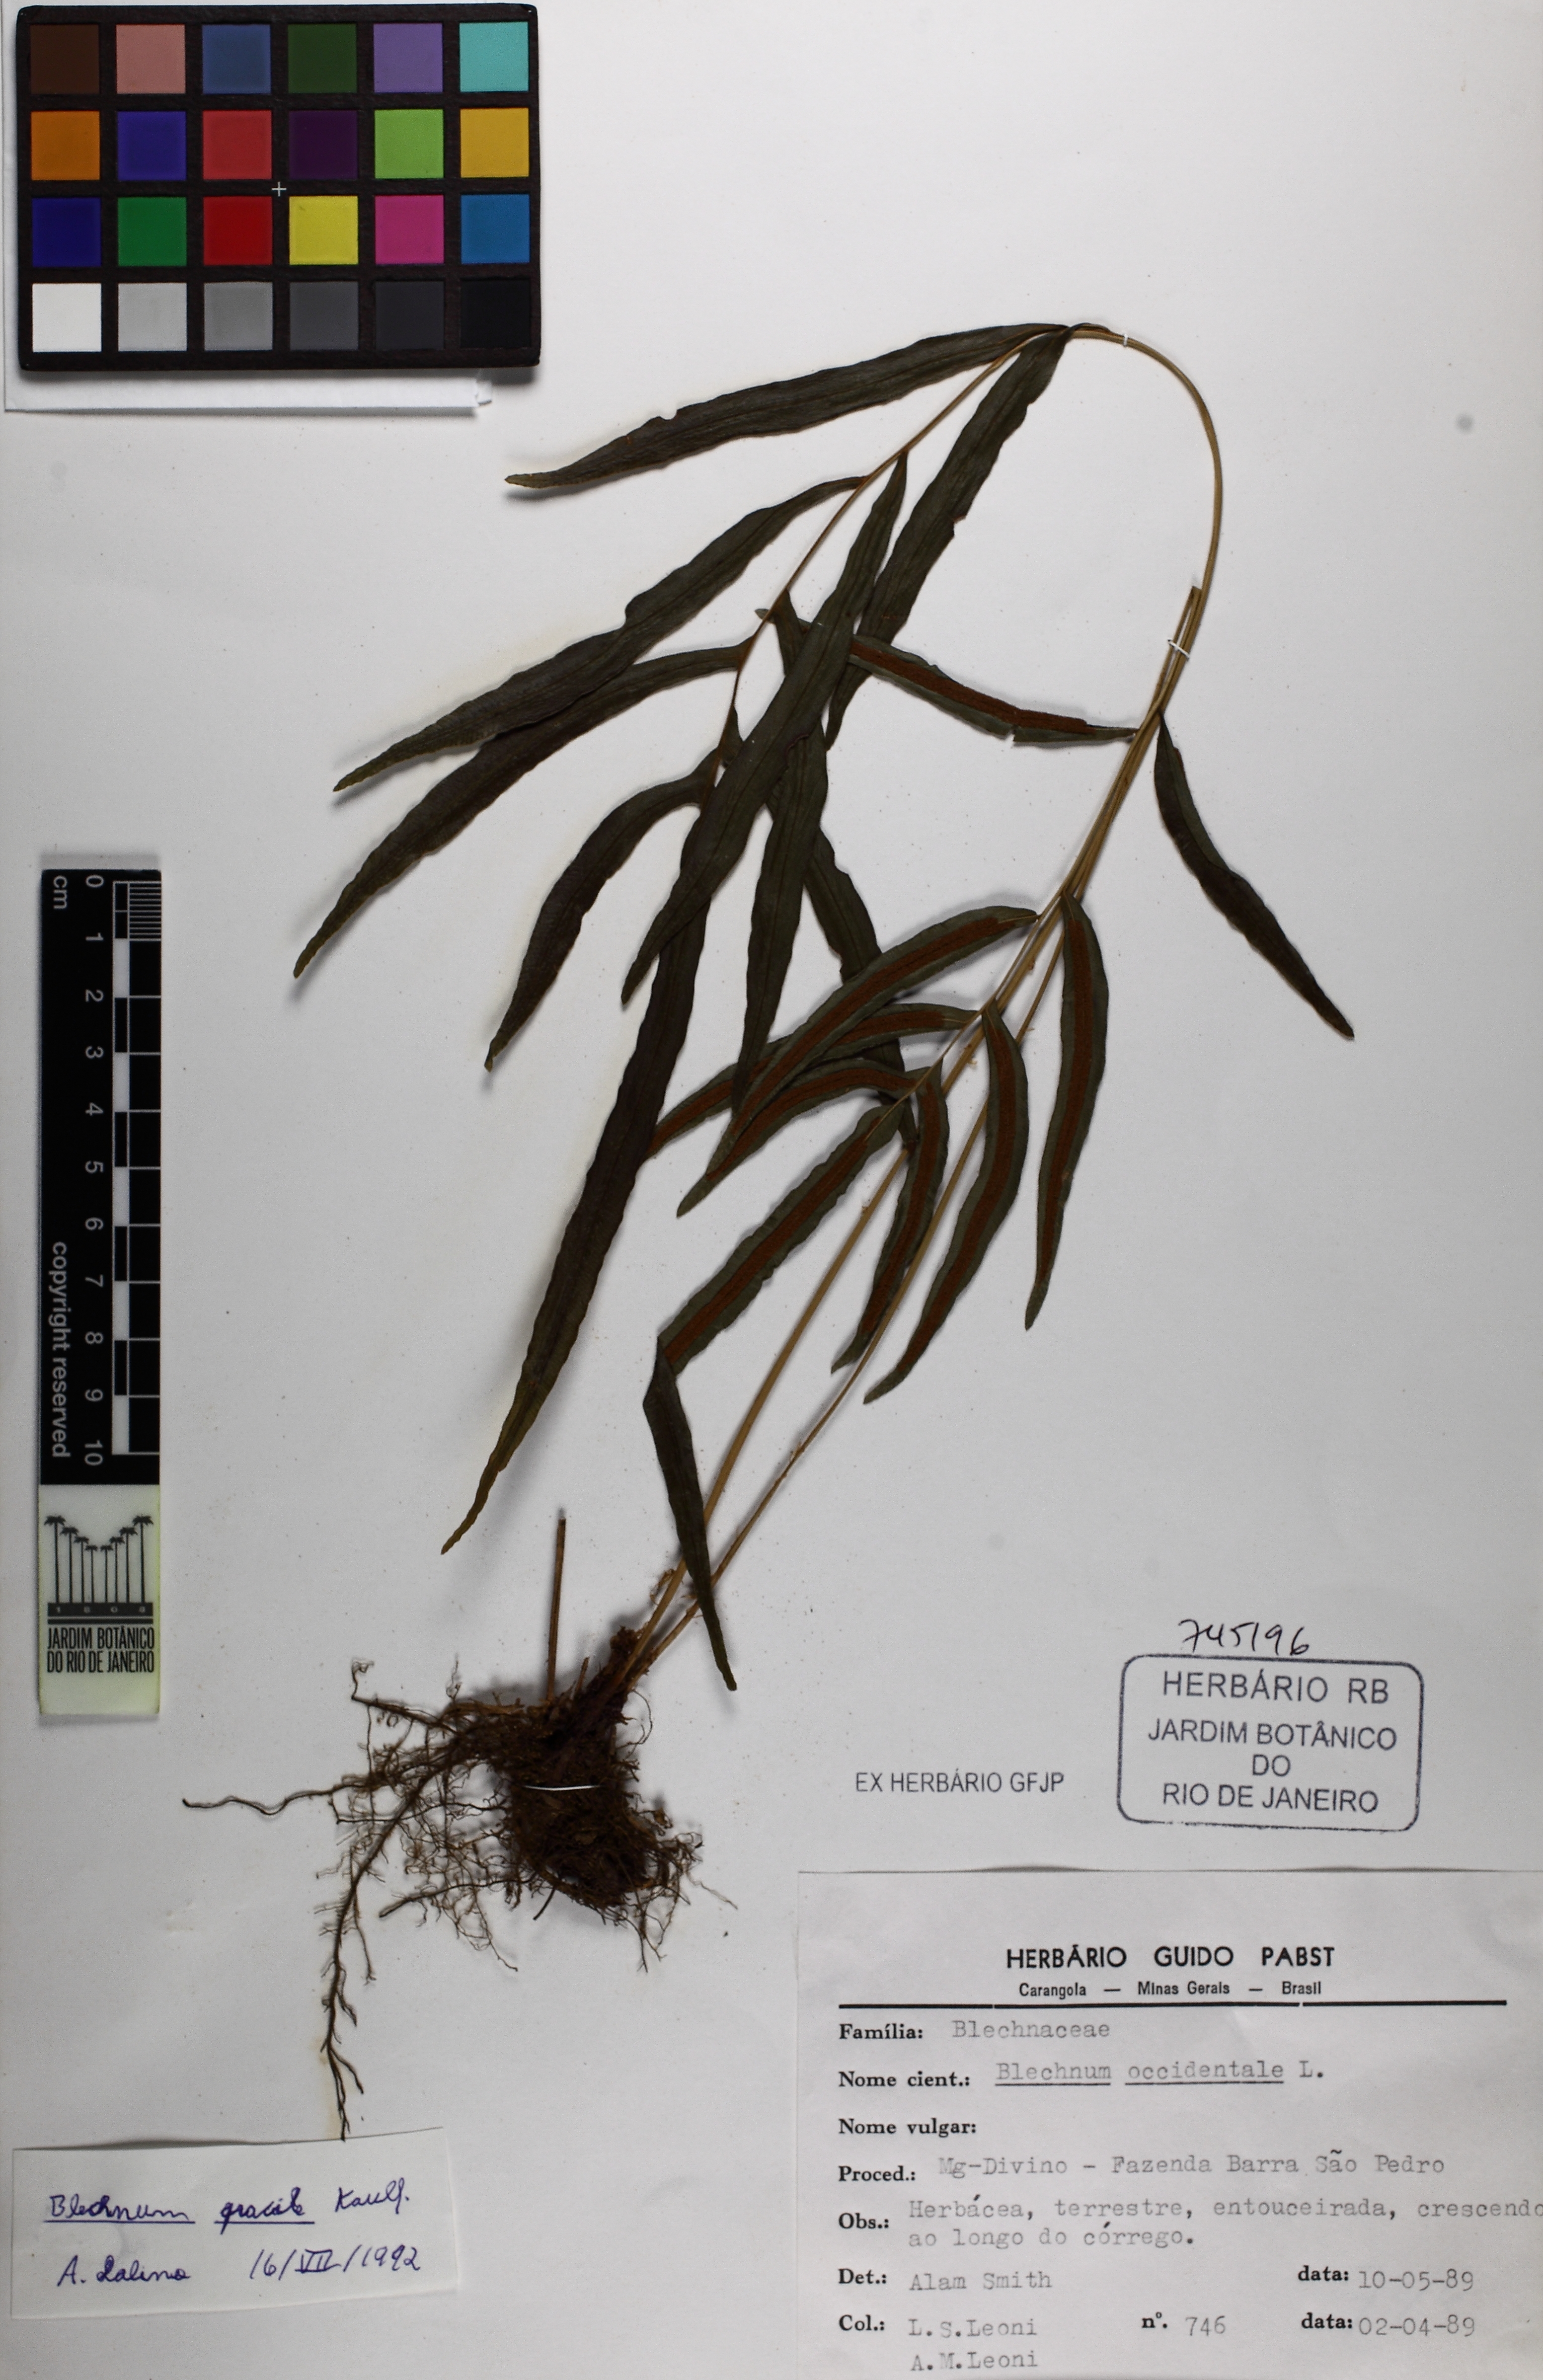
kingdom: Plantae
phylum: Tracheophyta
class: Polypodiopsida
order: Polypodiales
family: Blechnaceae
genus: Blechnum
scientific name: Blechnum gracile
